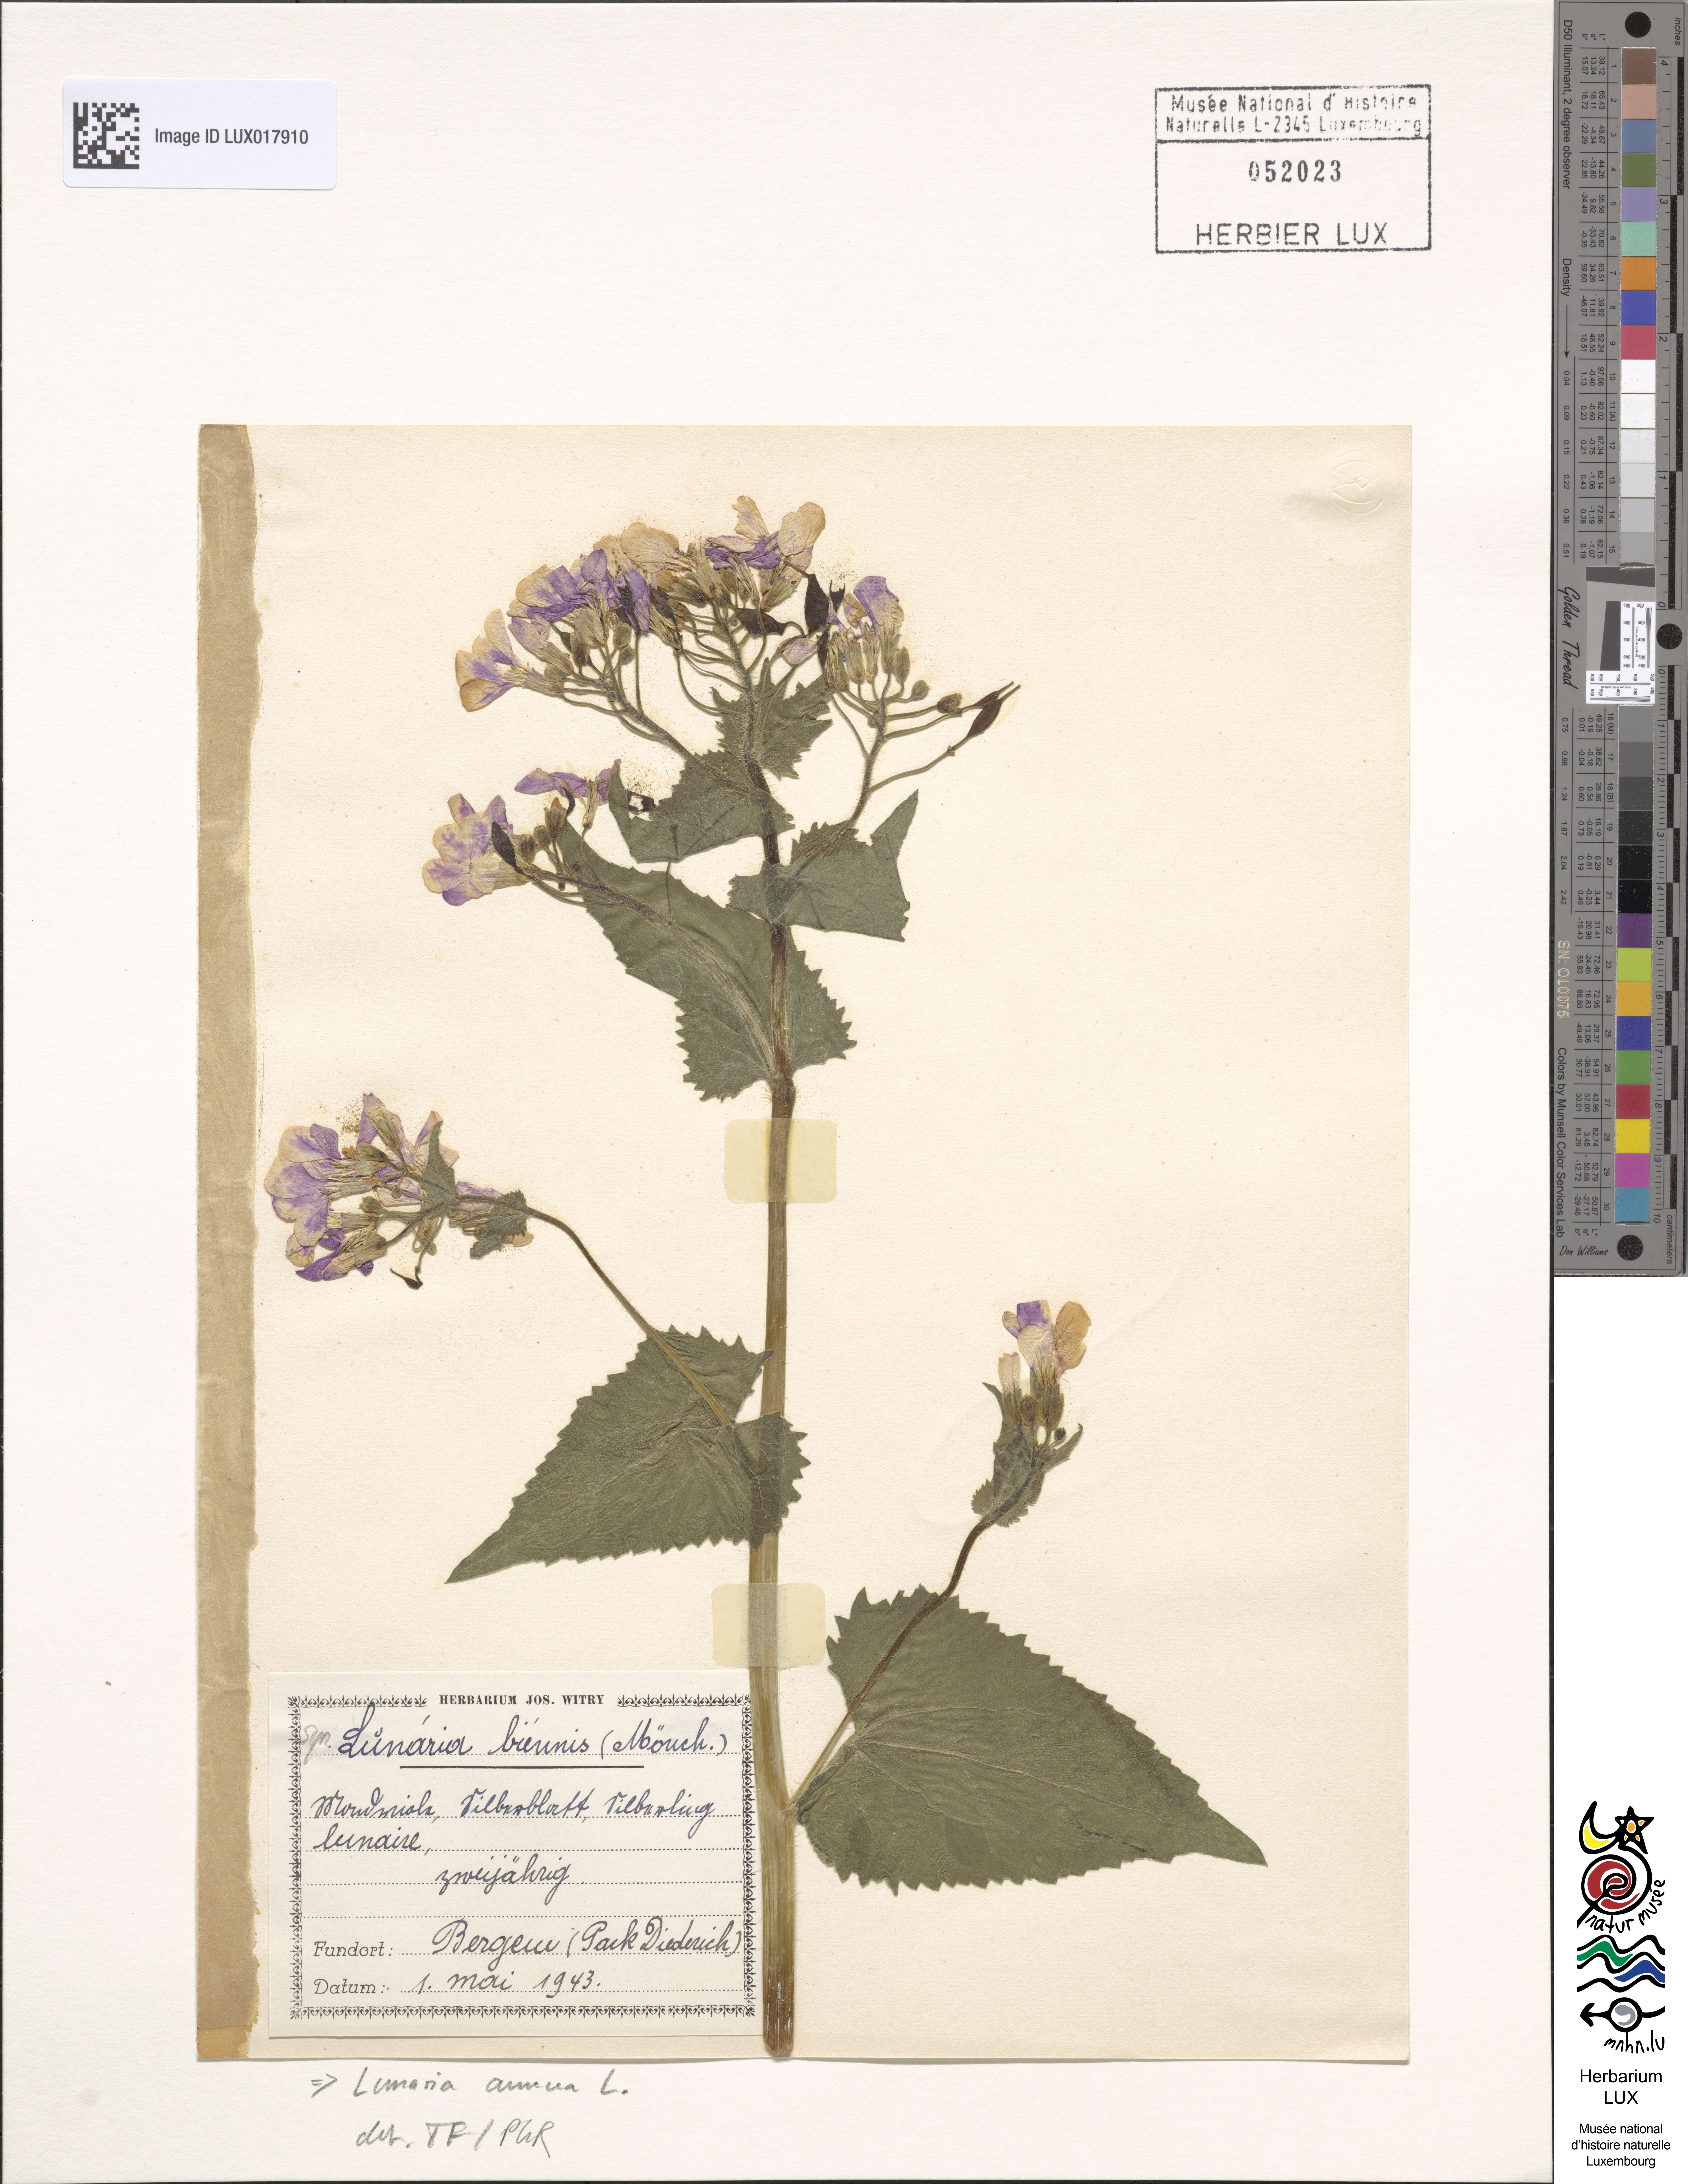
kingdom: Plantae
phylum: Tracheophyta
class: Magnoliopsida
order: Brassicales
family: Brassicaceae
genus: Lunaria
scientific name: Lunaria annua
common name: Honesty
